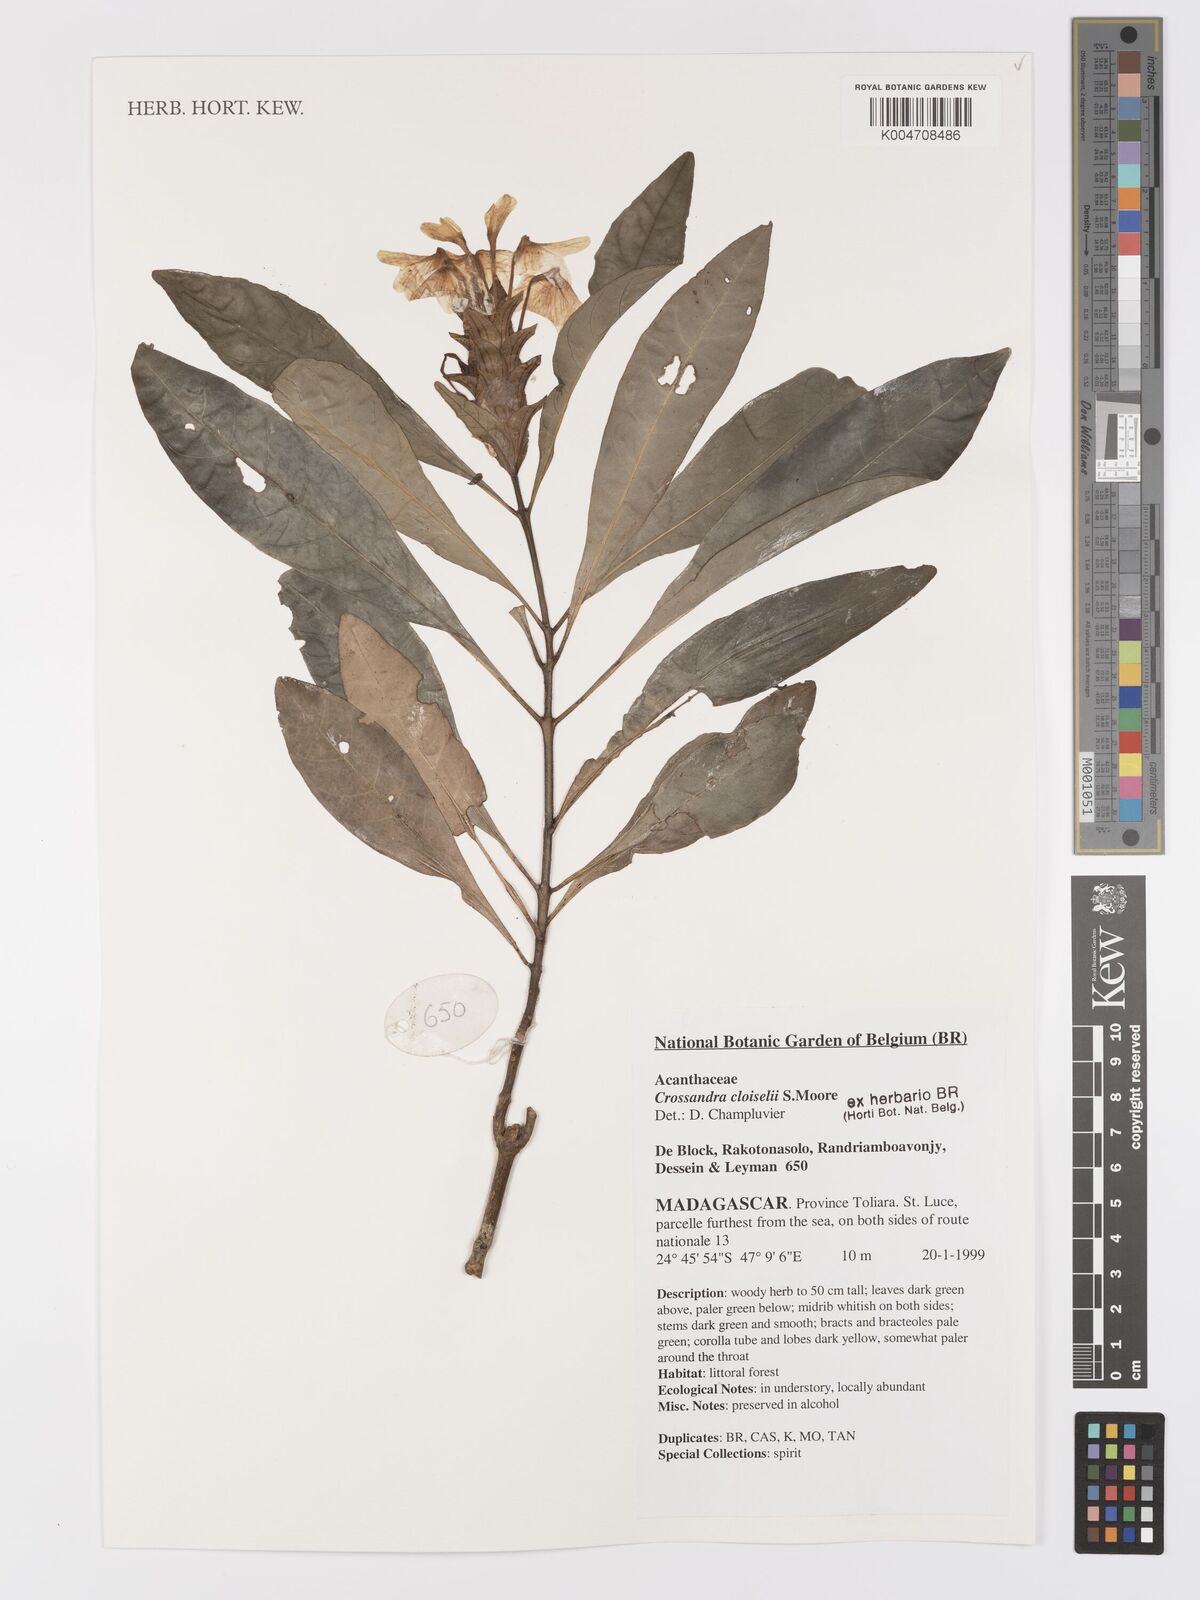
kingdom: Plantae
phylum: Tracheophyta
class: Magnoliopsida
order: Lamiales
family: Acanthaceae
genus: Crossandra
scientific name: Crossandra cloiselii
